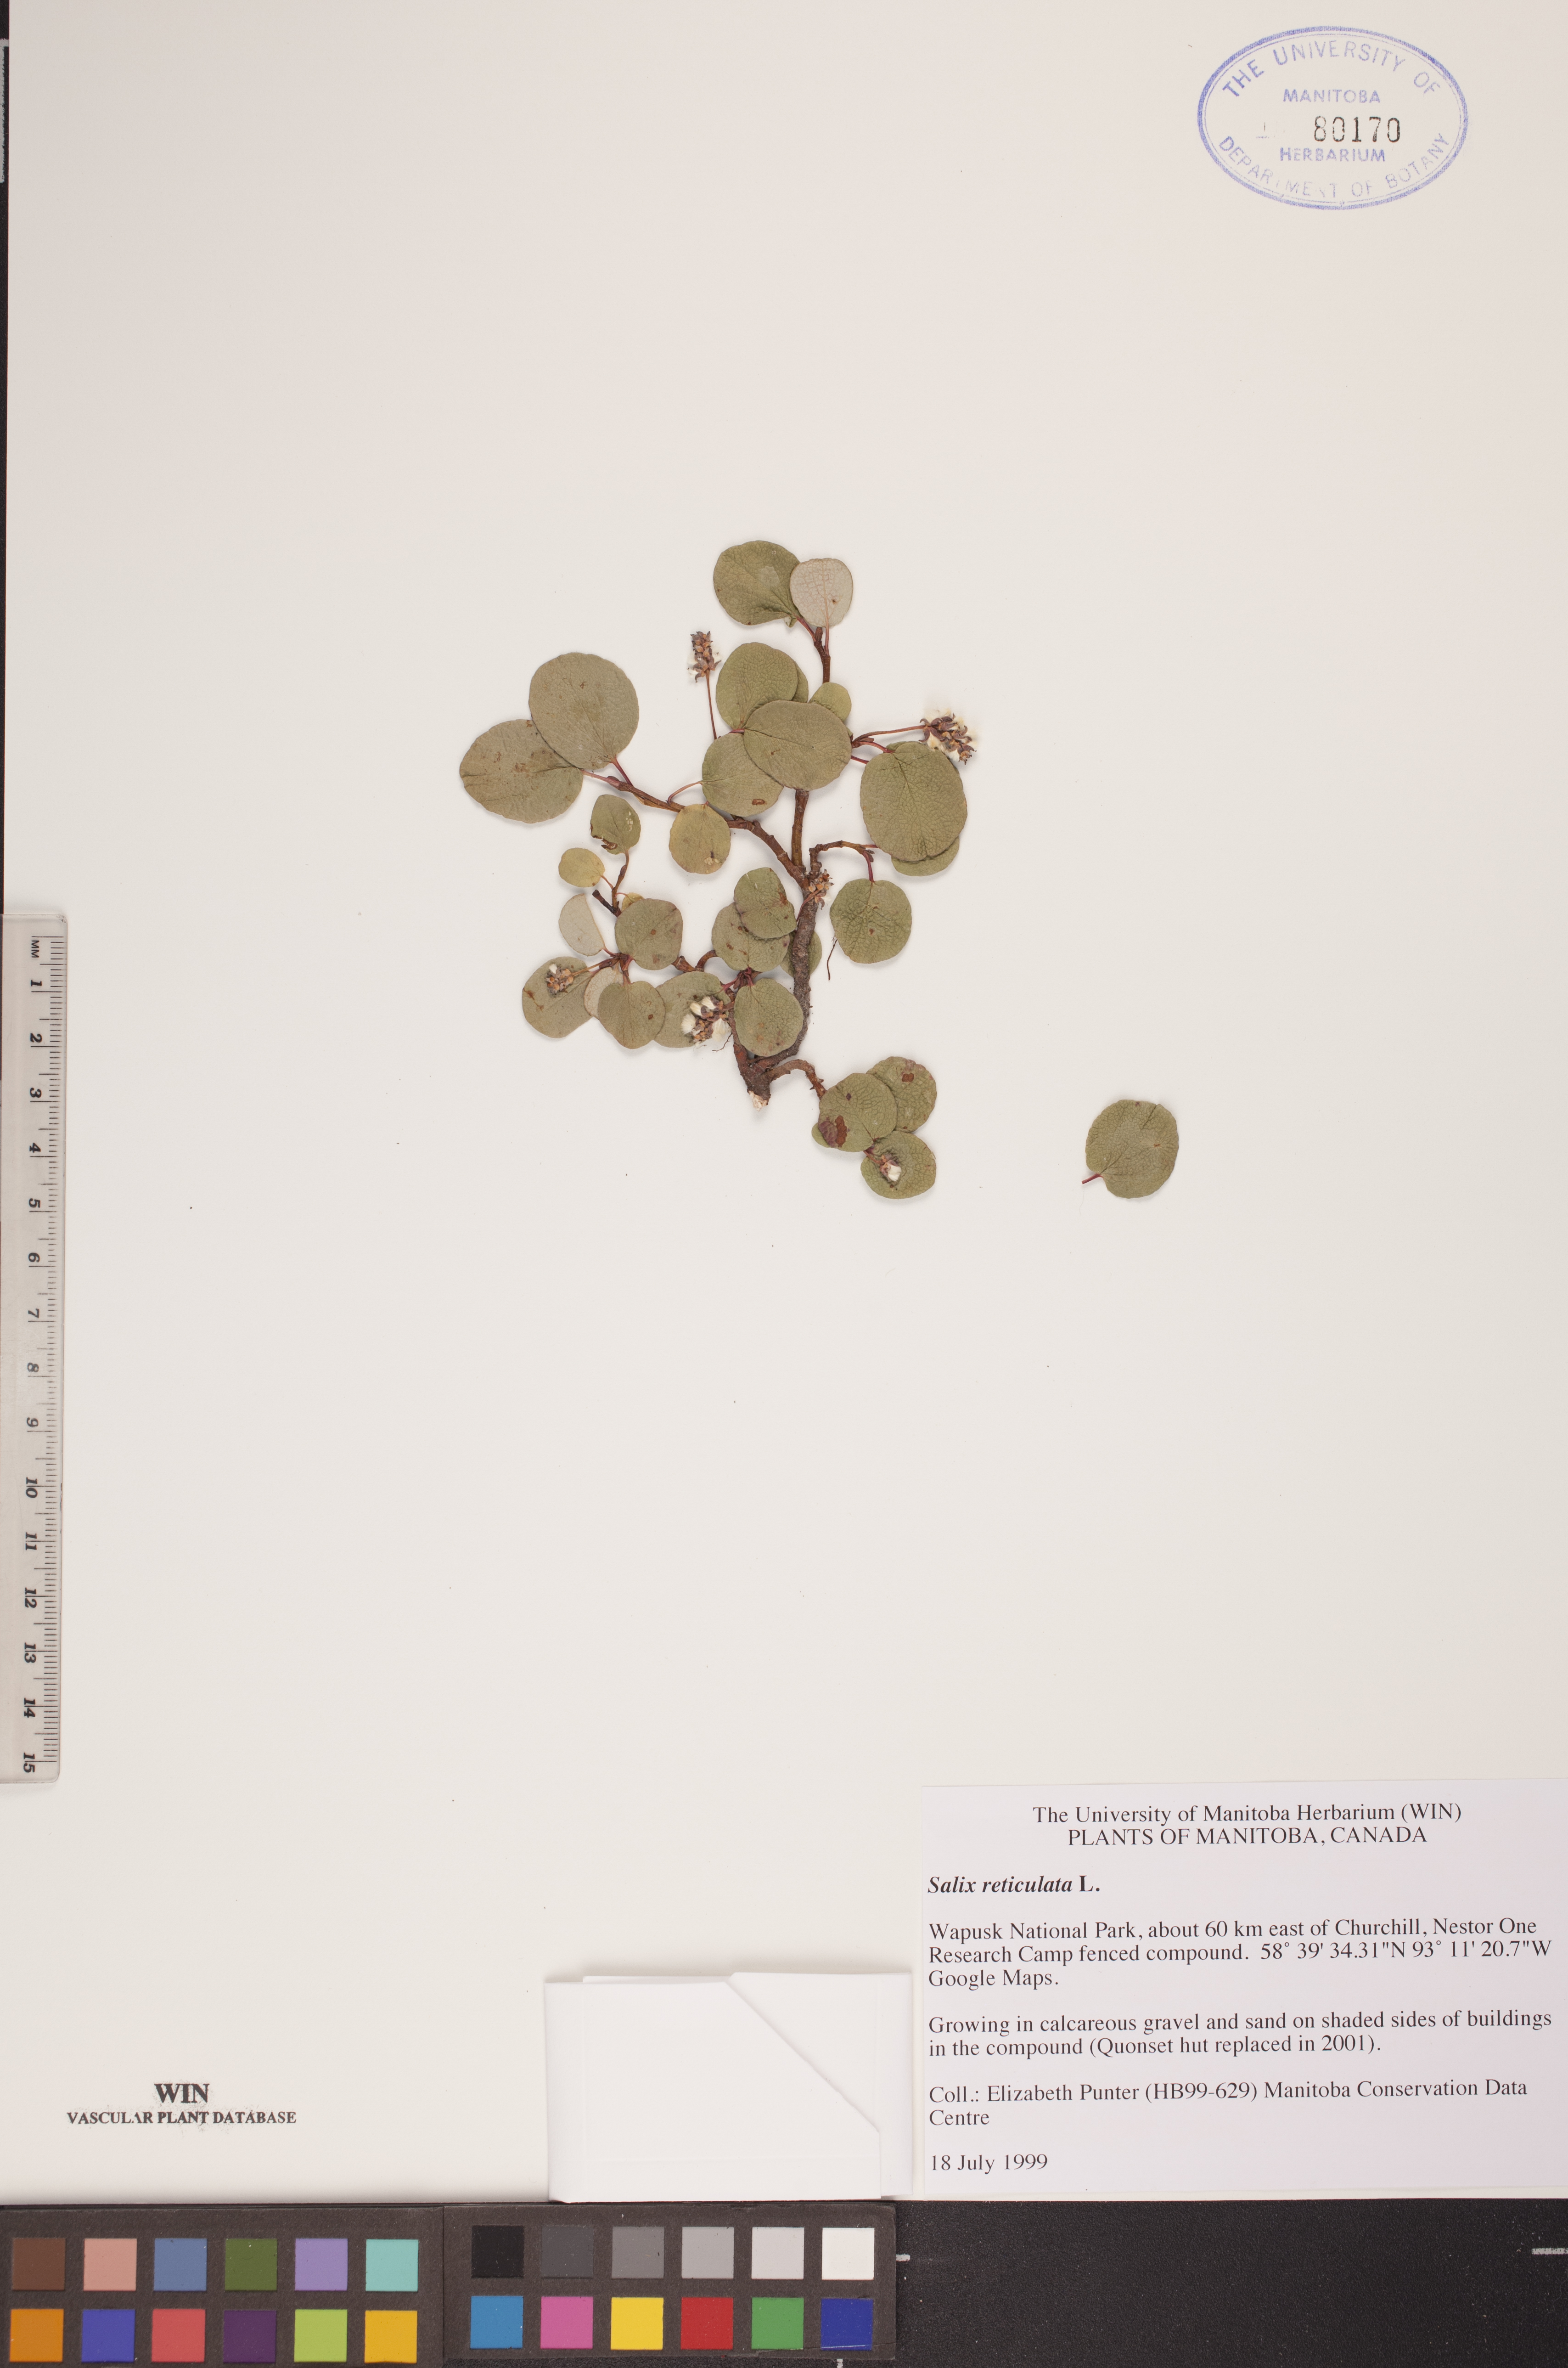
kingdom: Plantae
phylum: Tracheophyta
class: Magnoliopsida
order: Malpighiales
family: Salicaceae
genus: Salix
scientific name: Salix reticulata
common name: Net-leaved willow
